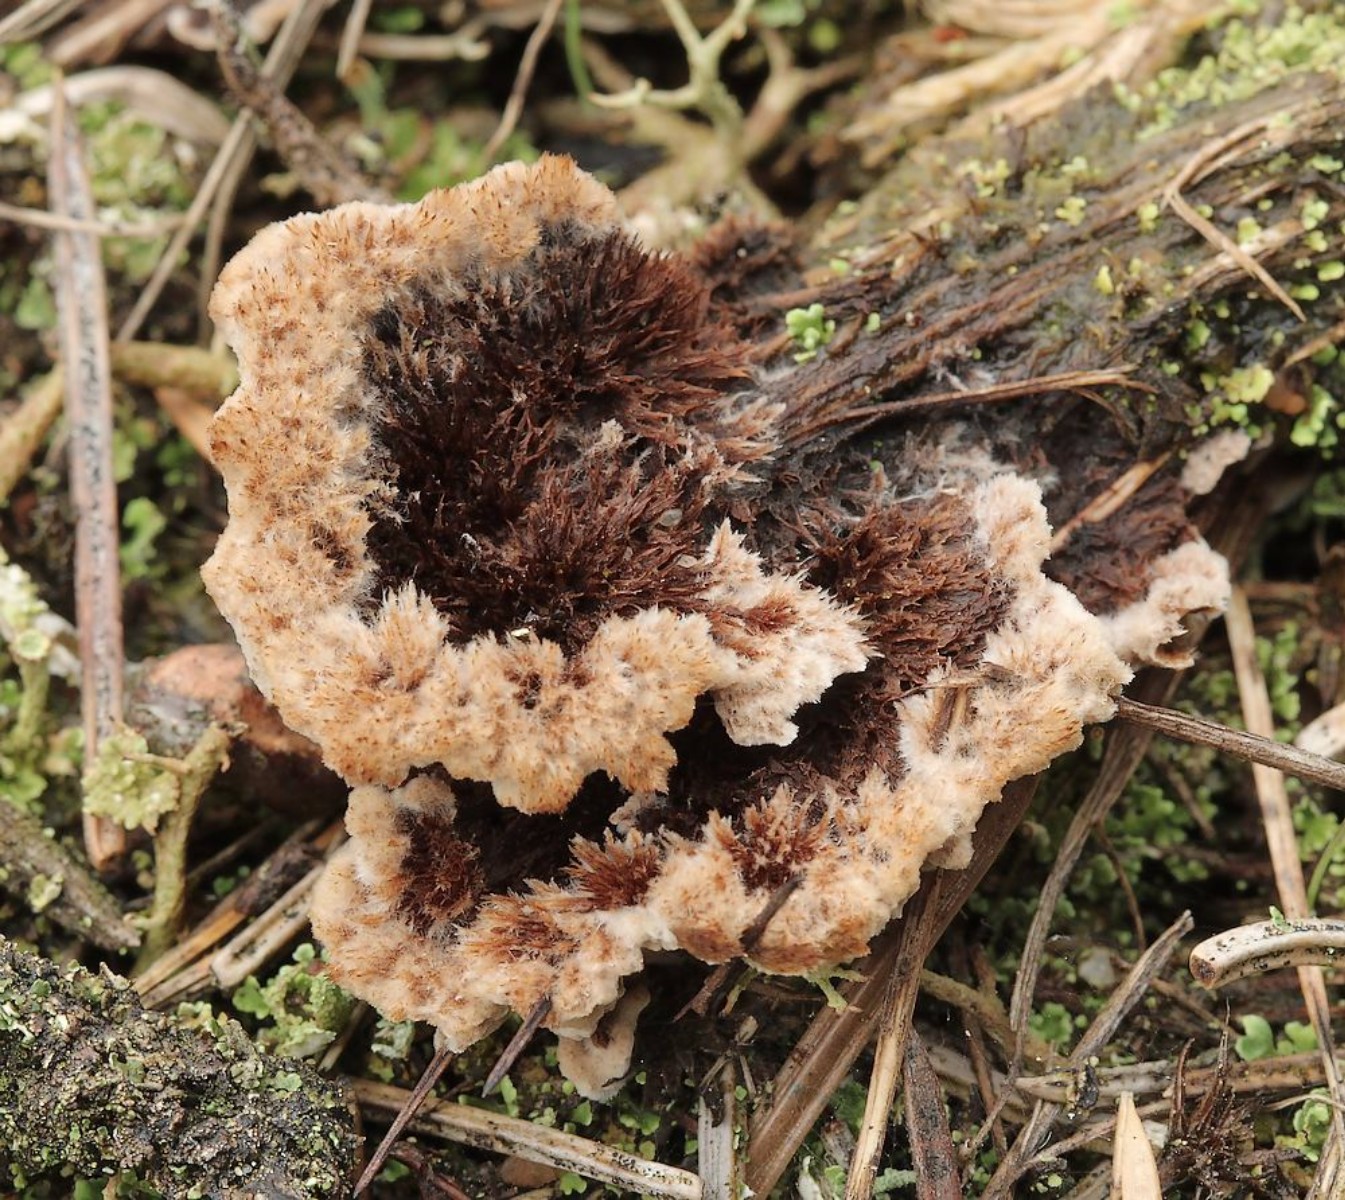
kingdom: Fungi
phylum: Basidiomycota
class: Agaricomycetes
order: Thelephorales
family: Thelephoraceae
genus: Thelephora
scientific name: Thelephora terrestris
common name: fliget frynsesvamp
